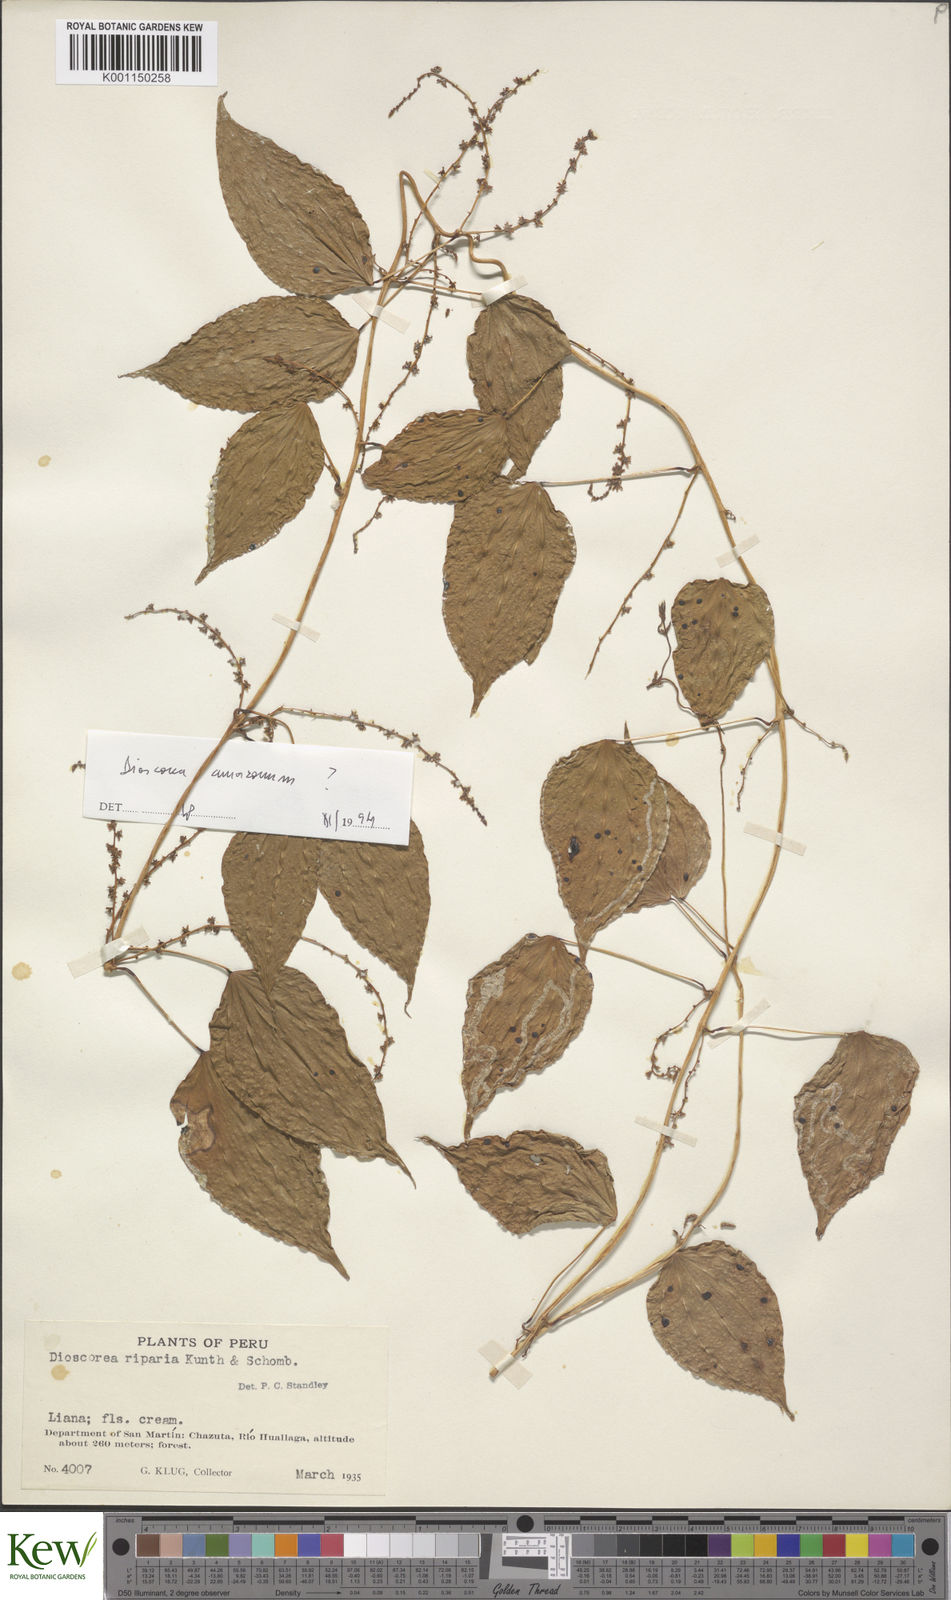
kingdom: Plantae
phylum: Tracheophyta
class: Liliopsida
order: Dioscoreales
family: Dioscoreaceae
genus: Dioscorea
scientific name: Dioscorea chondrocarpa
